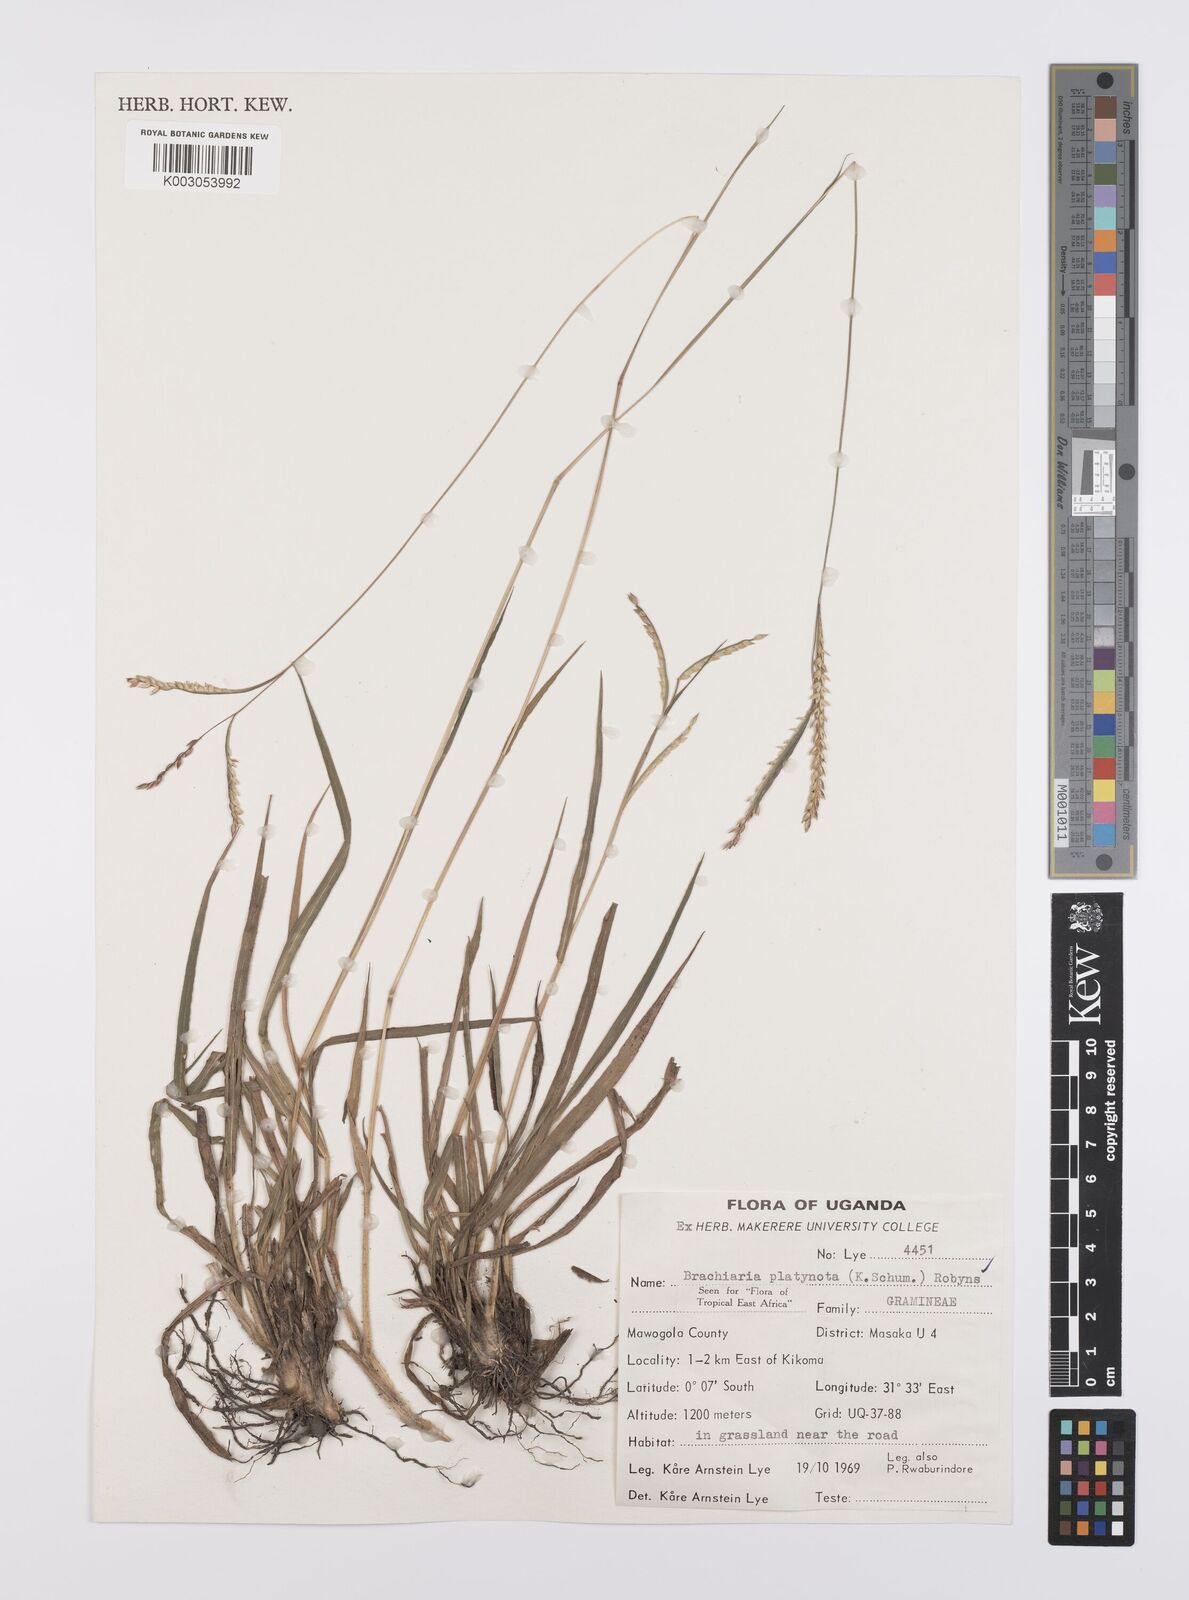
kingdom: Plantae
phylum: Tracheophyta
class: Liliopsida
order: Poales
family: Poaceae
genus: Urochloa
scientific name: Urochloa platynota
